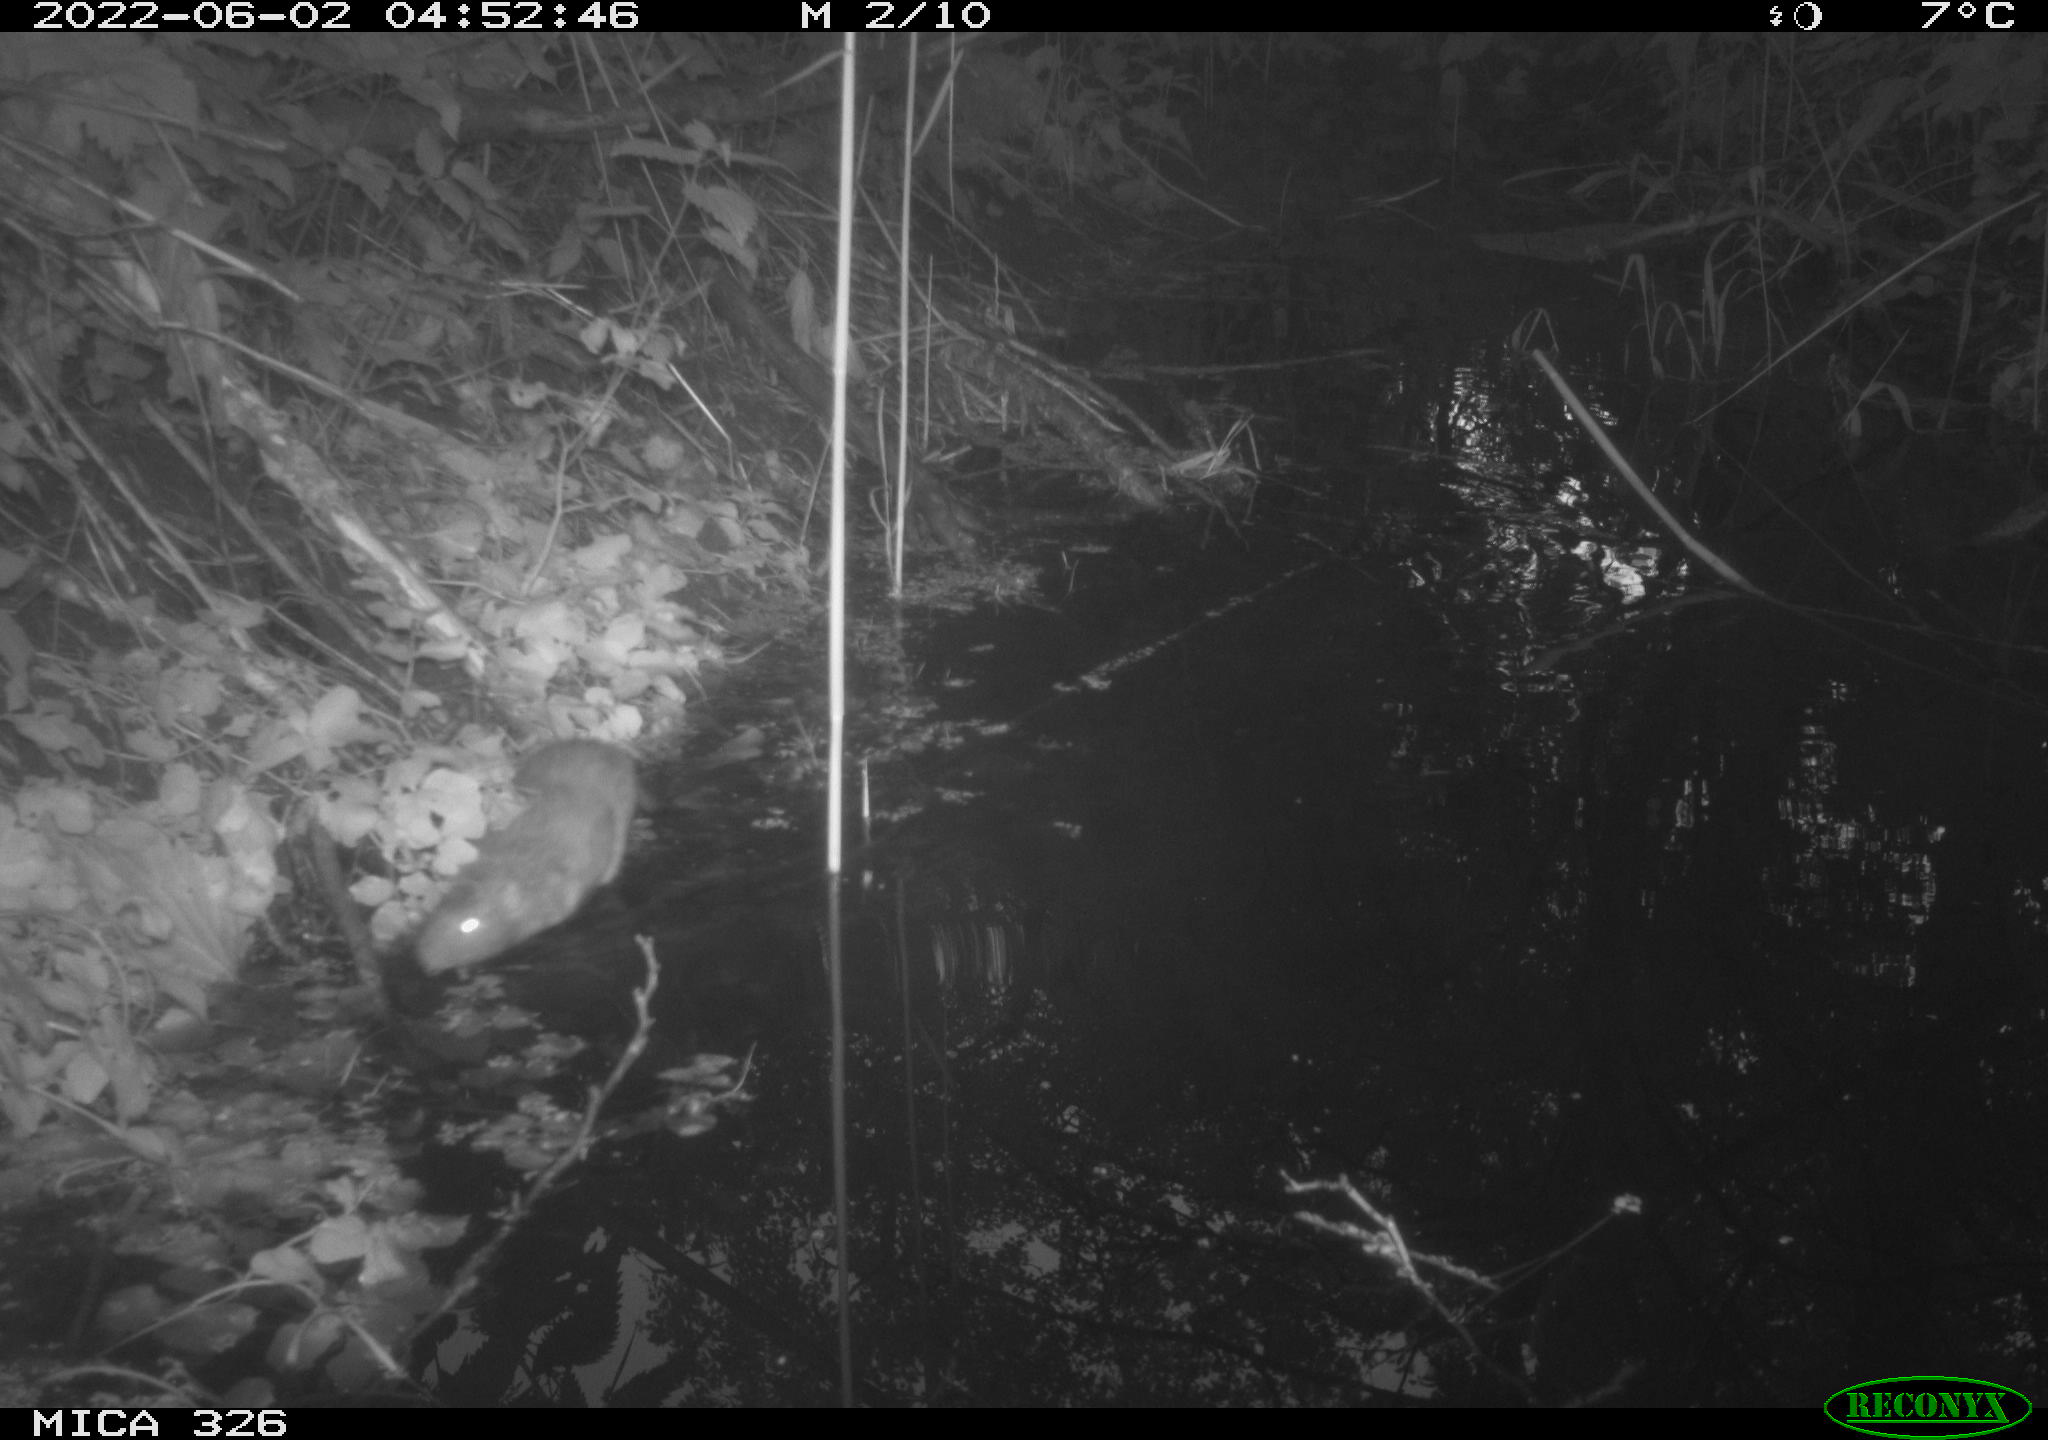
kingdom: Animalia
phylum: Chordata
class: Mammalia
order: Rodentia
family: Muridae
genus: Rattus
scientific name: Rattus norvegicus
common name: Brown rat
